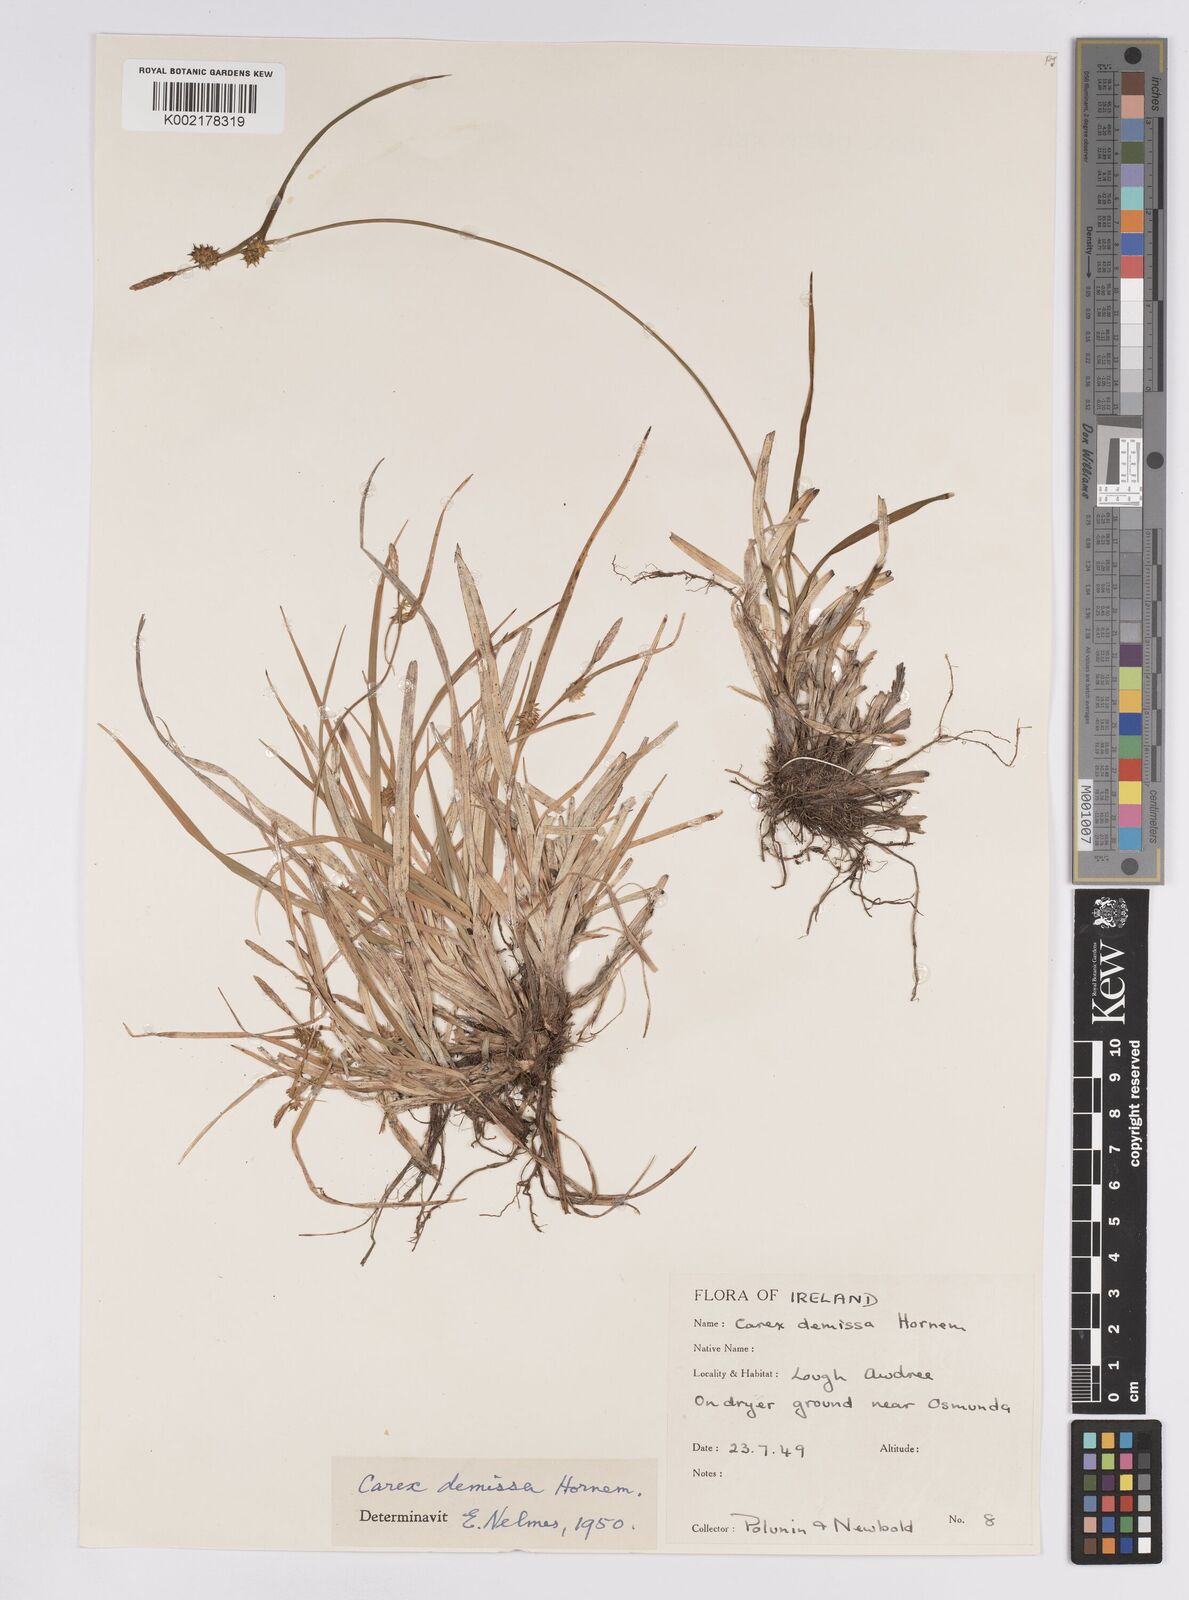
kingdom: Plantae
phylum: Tracheophyta
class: Liliopsida
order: Poales
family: Cyperaceae
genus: Carex
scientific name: Carex demissa
